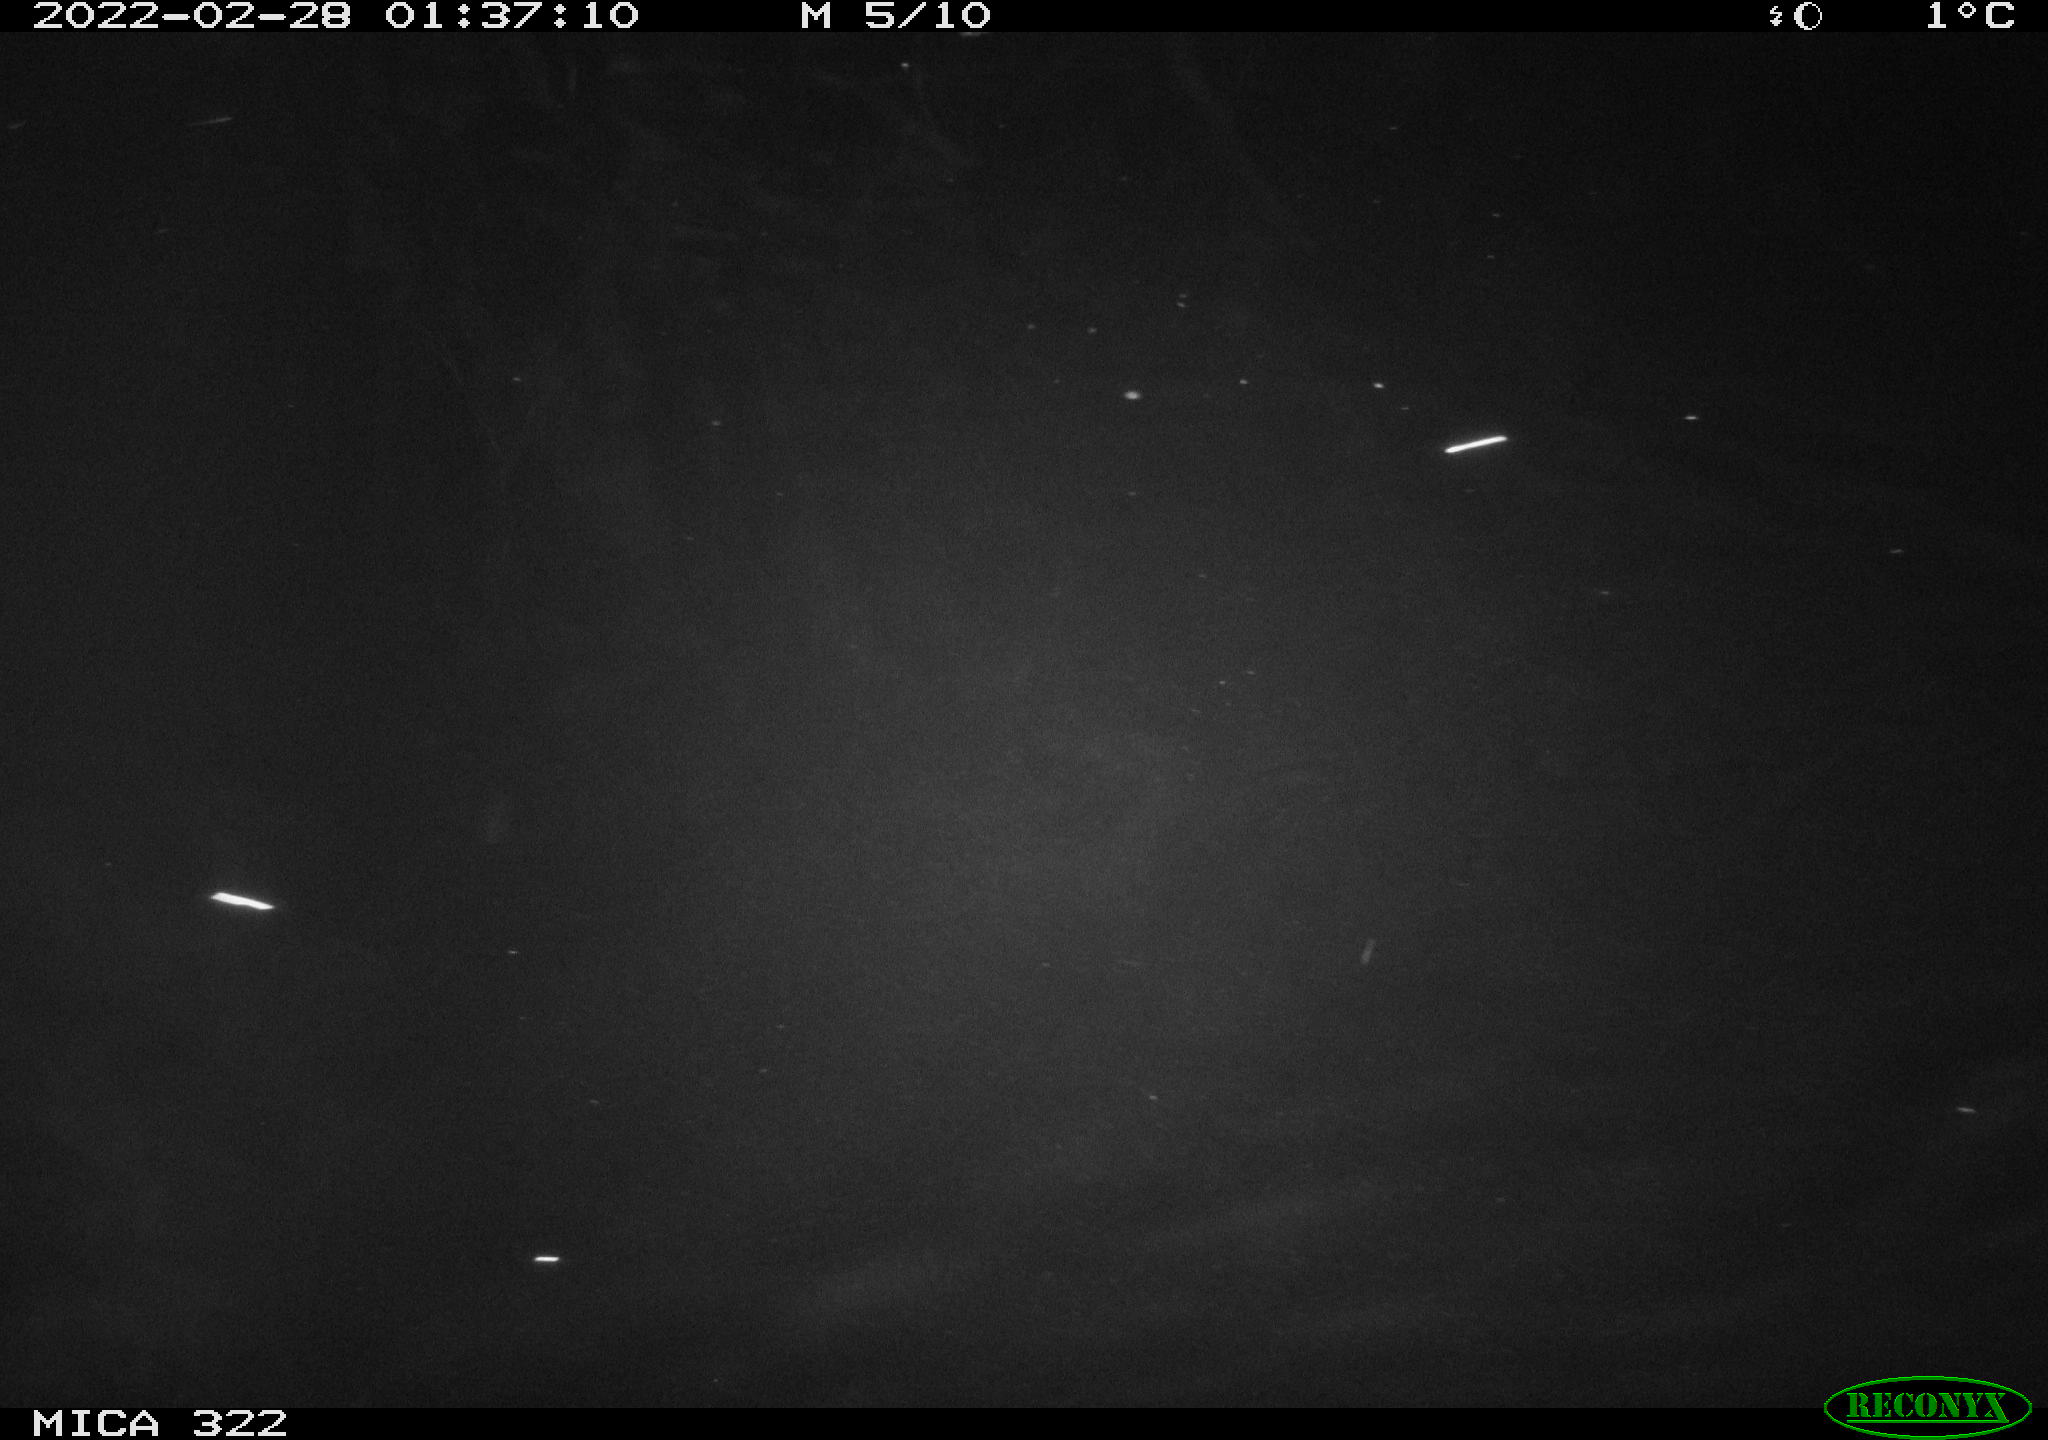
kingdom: Animalia
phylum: Chordata
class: Aves
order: Gruiformes
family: Rallidae
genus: Gallinula
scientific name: Gallinula chloropus
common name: Common moorhen
